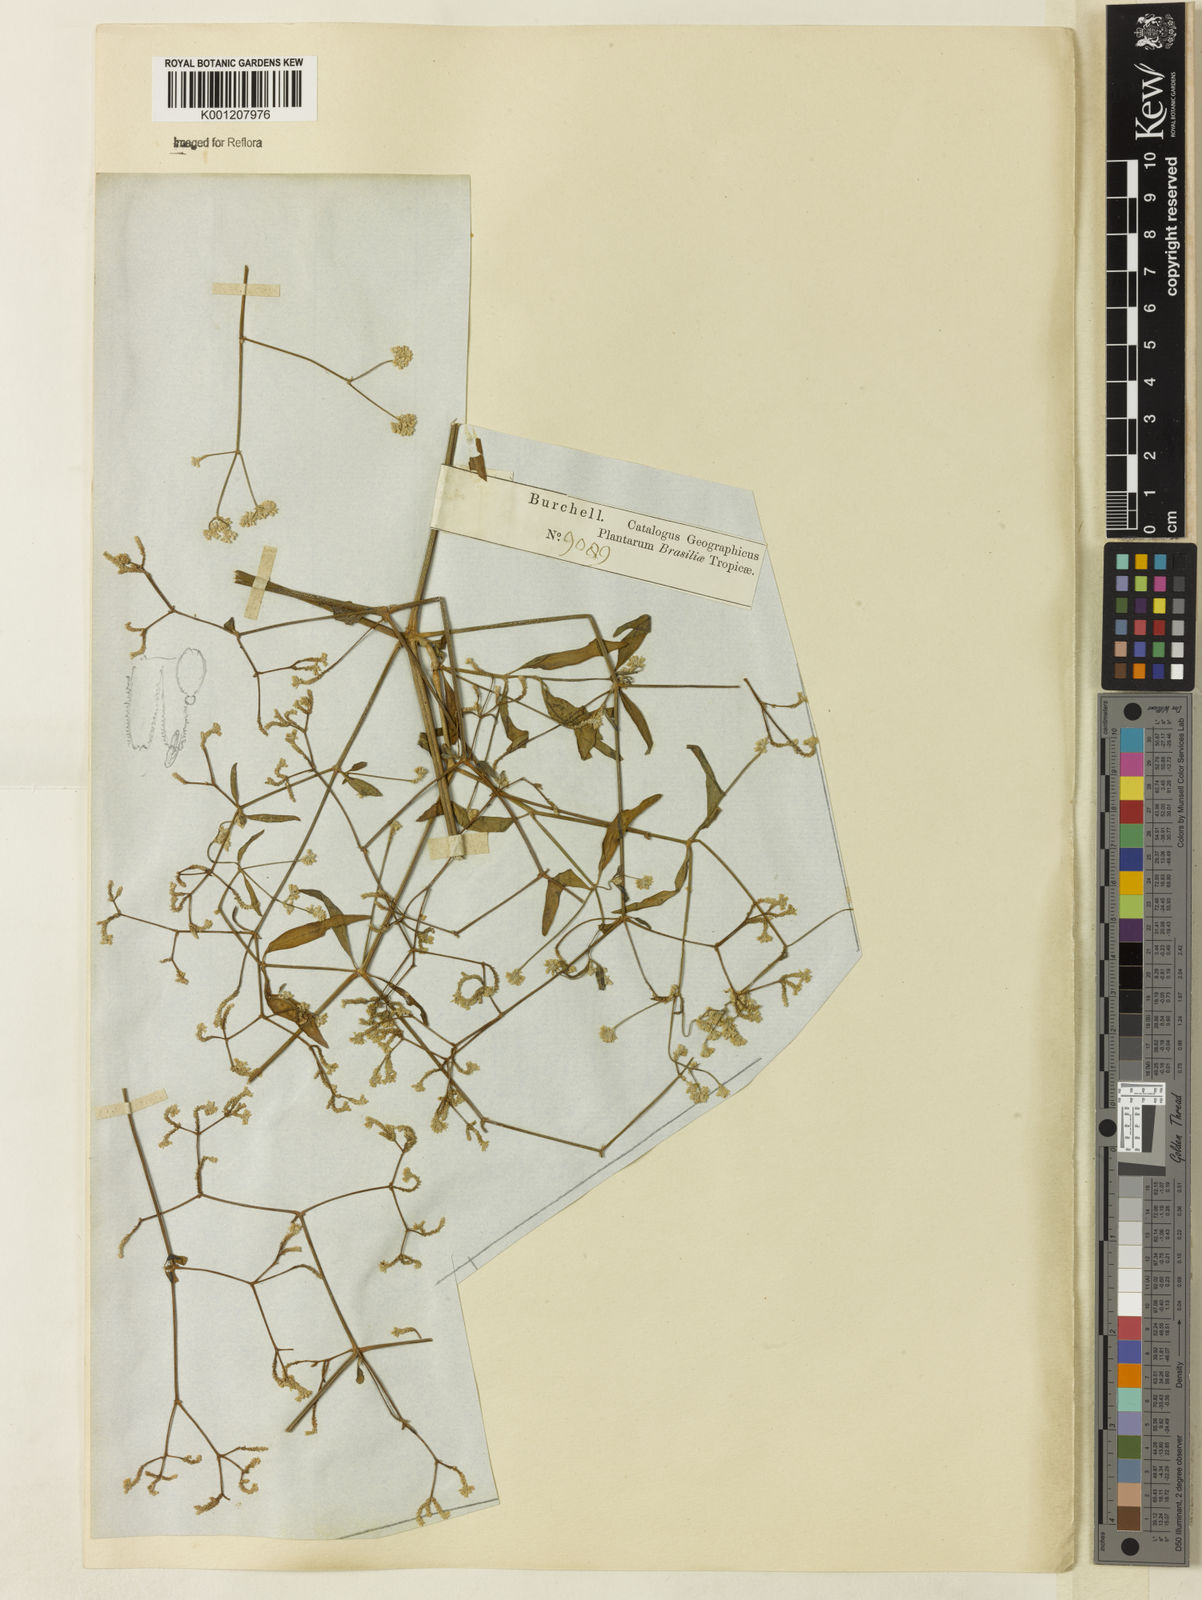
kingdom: Plantae
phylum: Tracheophyta
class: Magnoliopsida
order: Caryophyllales
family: Amaranthaceae
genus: Pfaffia
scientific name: Pfaffia
